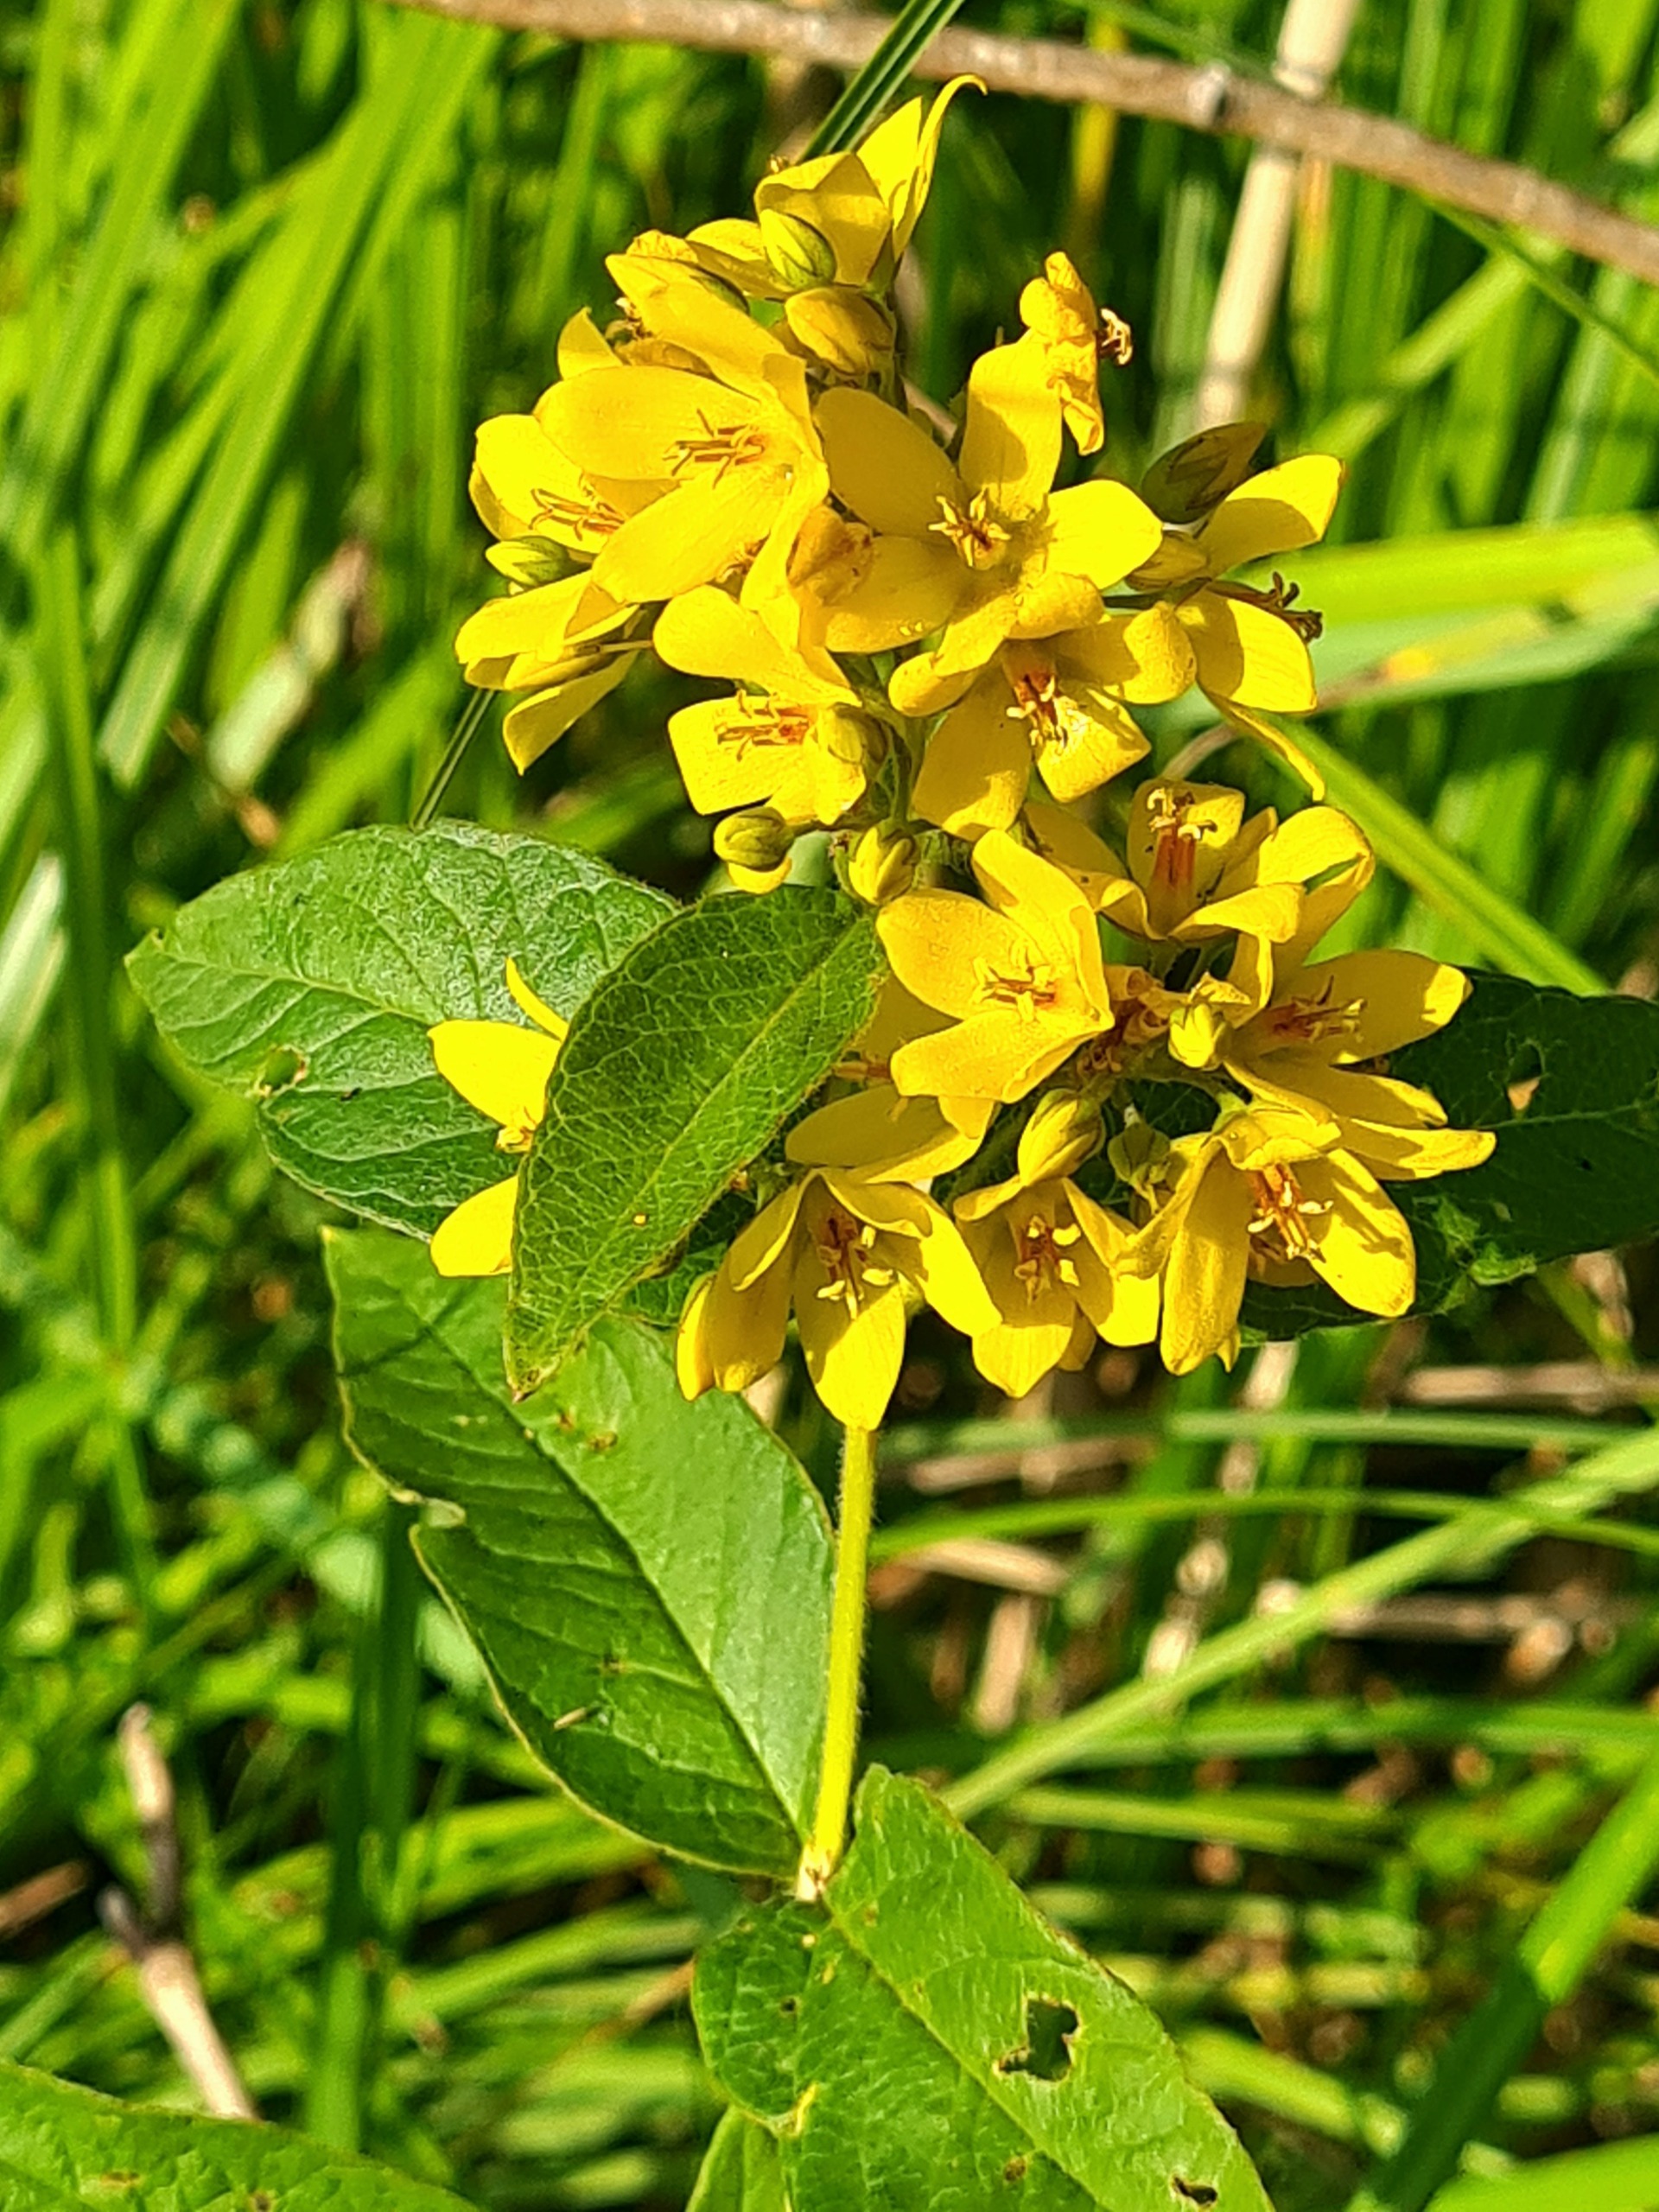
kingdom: Plantae
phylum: Tracheophyta
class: Magnoliopsida
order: Ericales
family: Primulaceae
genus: Lysimachia
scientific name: Lysimachia vulgaris
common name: Almindelig fredløs
